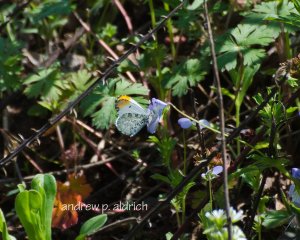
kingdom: Animalia
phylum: Arthropoda
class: Insecta
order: Lepidoptera
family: Pieridae
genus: Anthocharis
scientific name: Anthocharis midea
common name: Falcate Orangetip
